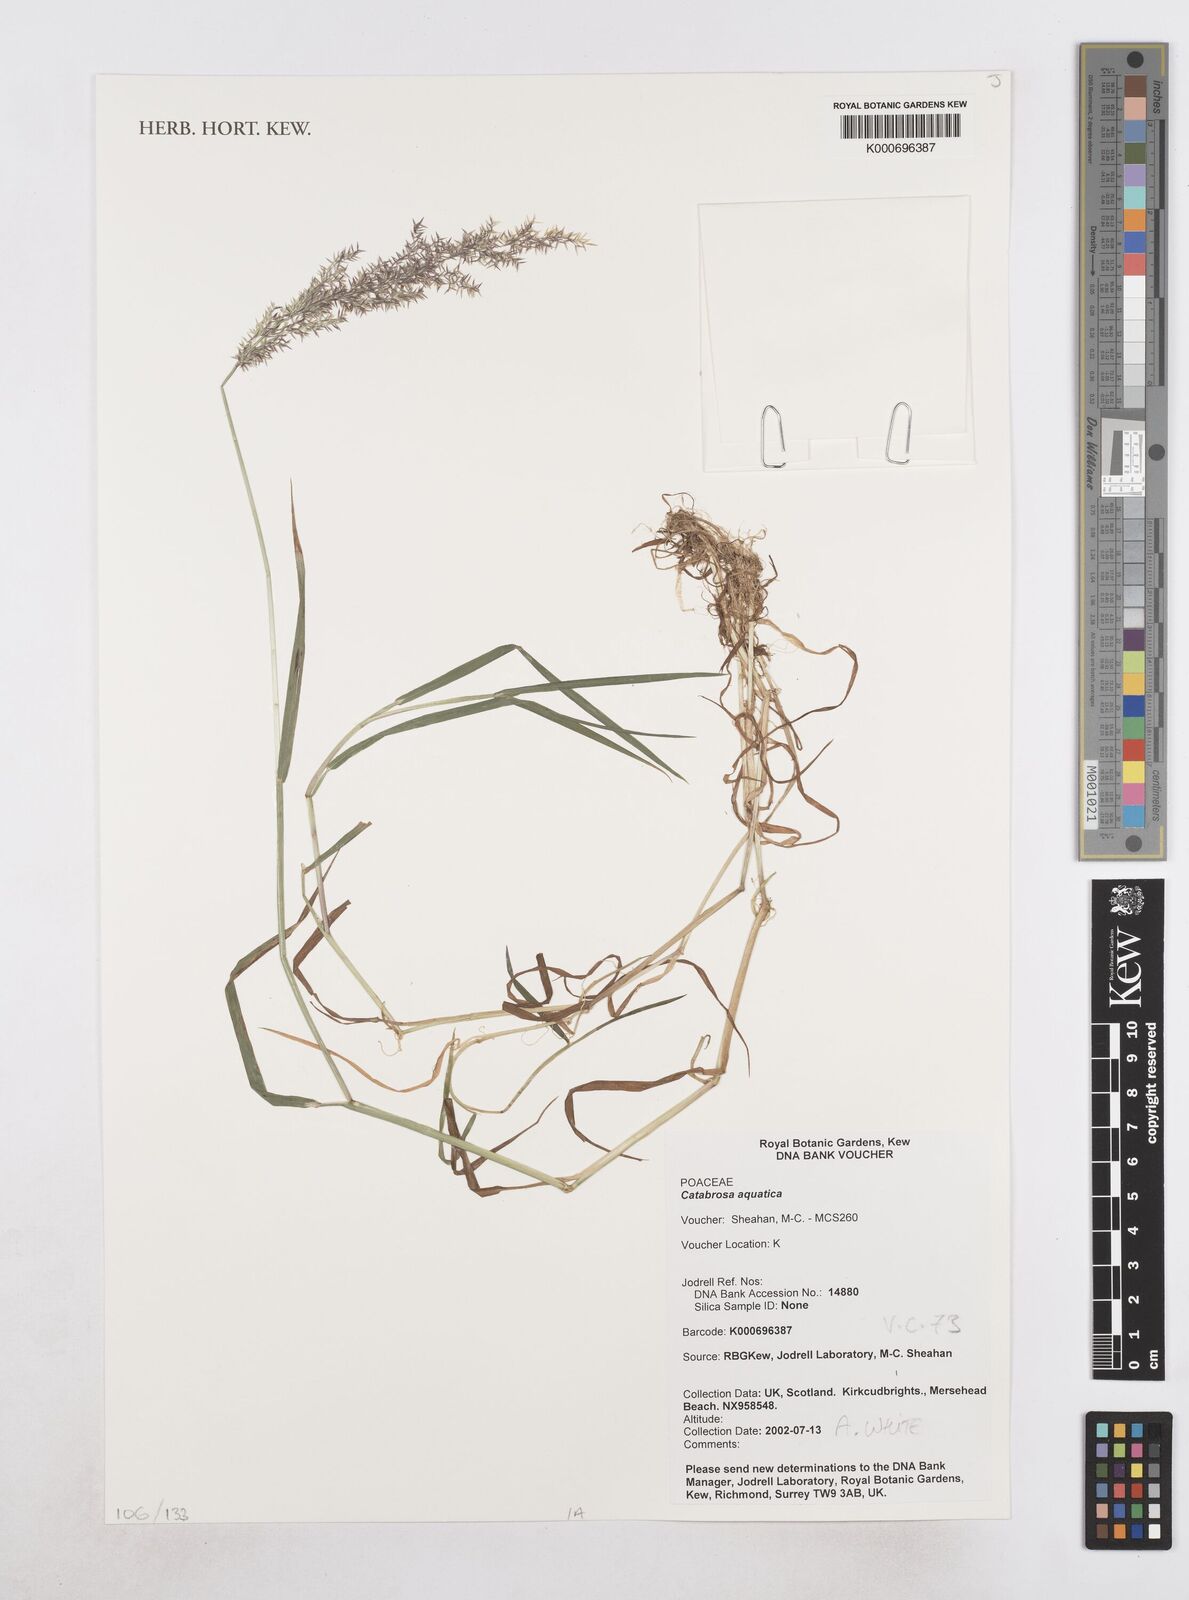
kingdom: Plantae
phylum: Tracheophyta
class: Liliopsida
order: Poales
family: Poaceae
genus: Catabrosa
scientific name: Catabrosa aquatica
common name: Whorl-grass
